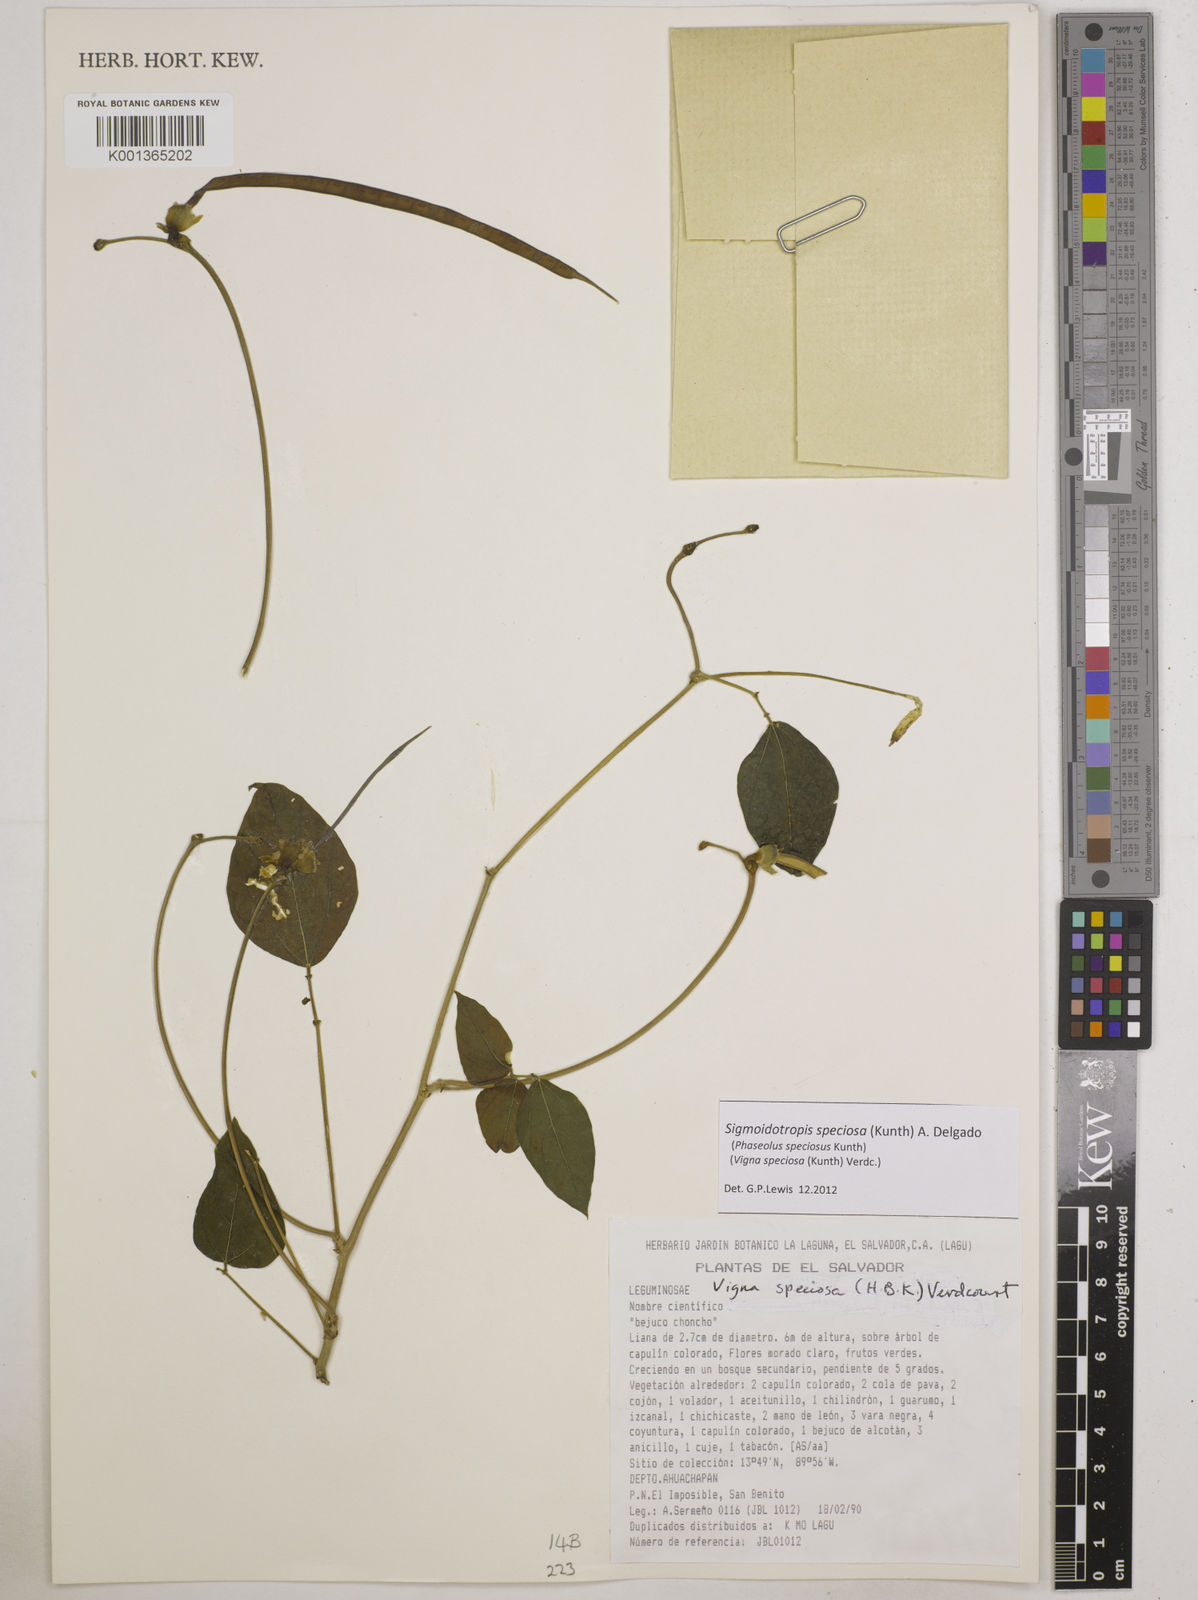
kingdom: Plantae
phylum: Tracheophyta
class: Magnoliopsida
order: Fabales
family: Fabaceae
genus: Sigmoidotropis
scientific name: Sigmoidotropis speciosa
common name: Snail flower
